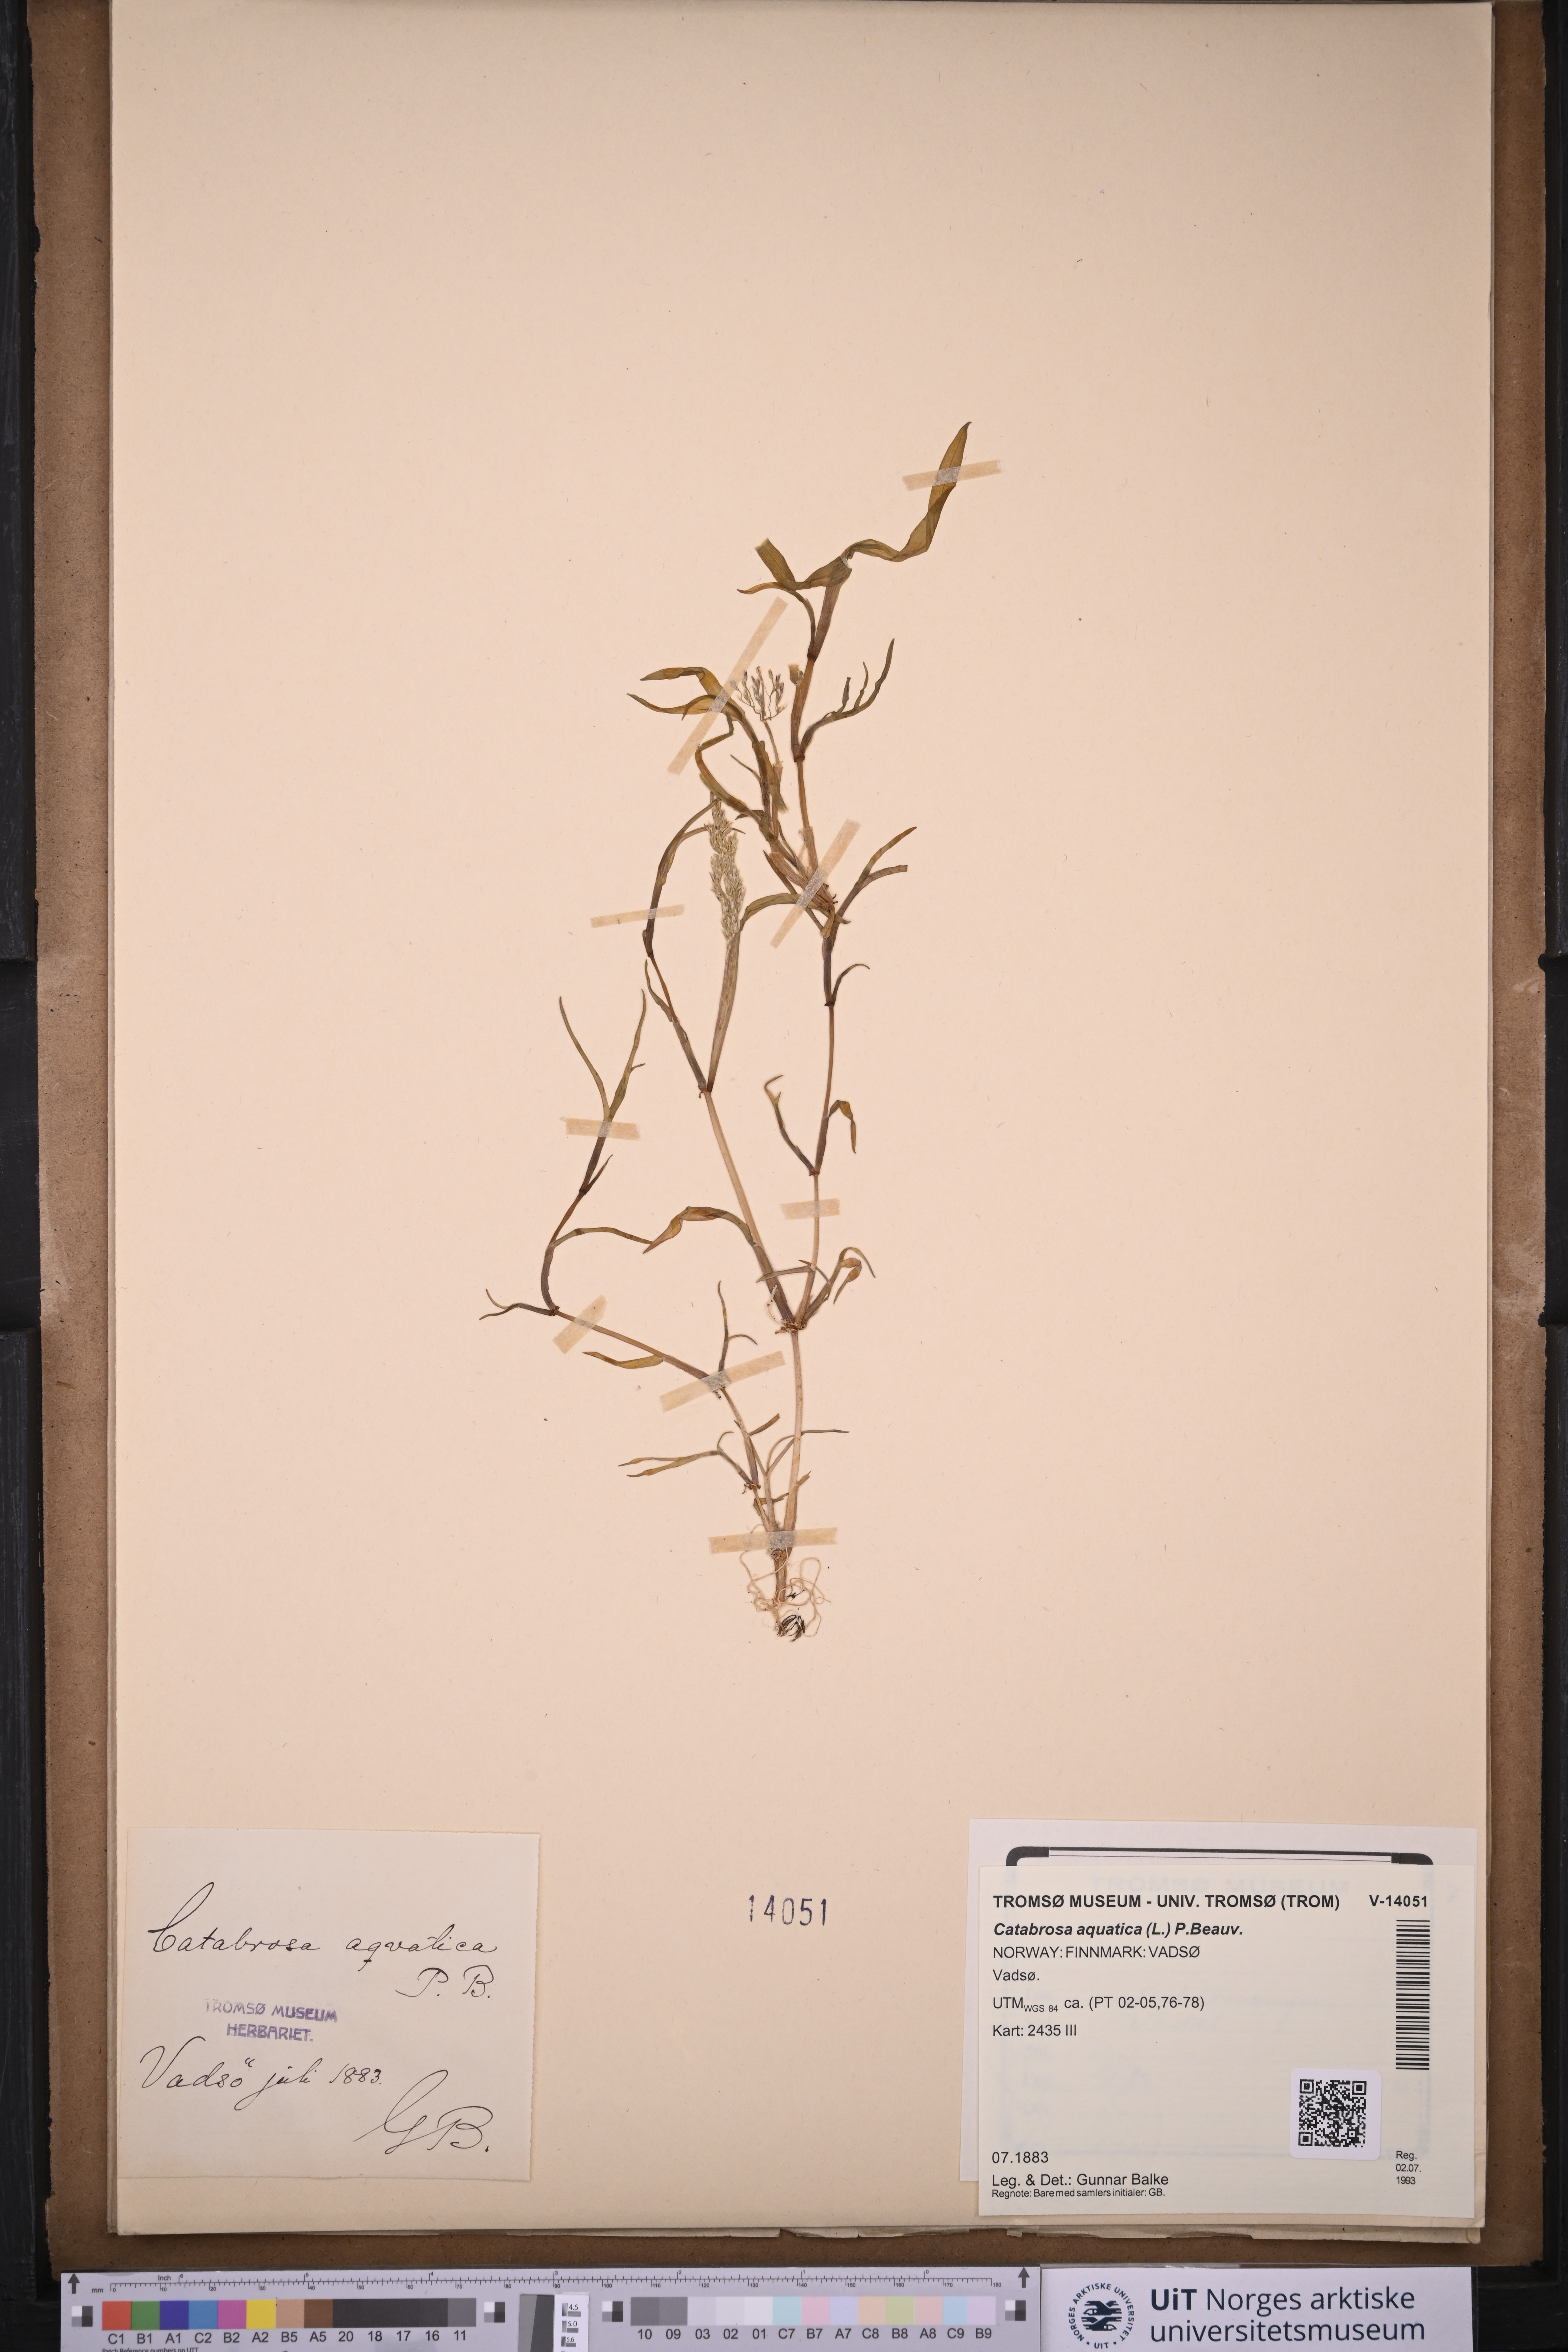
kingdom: Plantae
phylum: Tracheophyta
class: Liliopsida
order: Poales
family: Poaceae
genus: Catabrosa
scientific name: Catabrosa aquatica
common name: Whorl-grass
